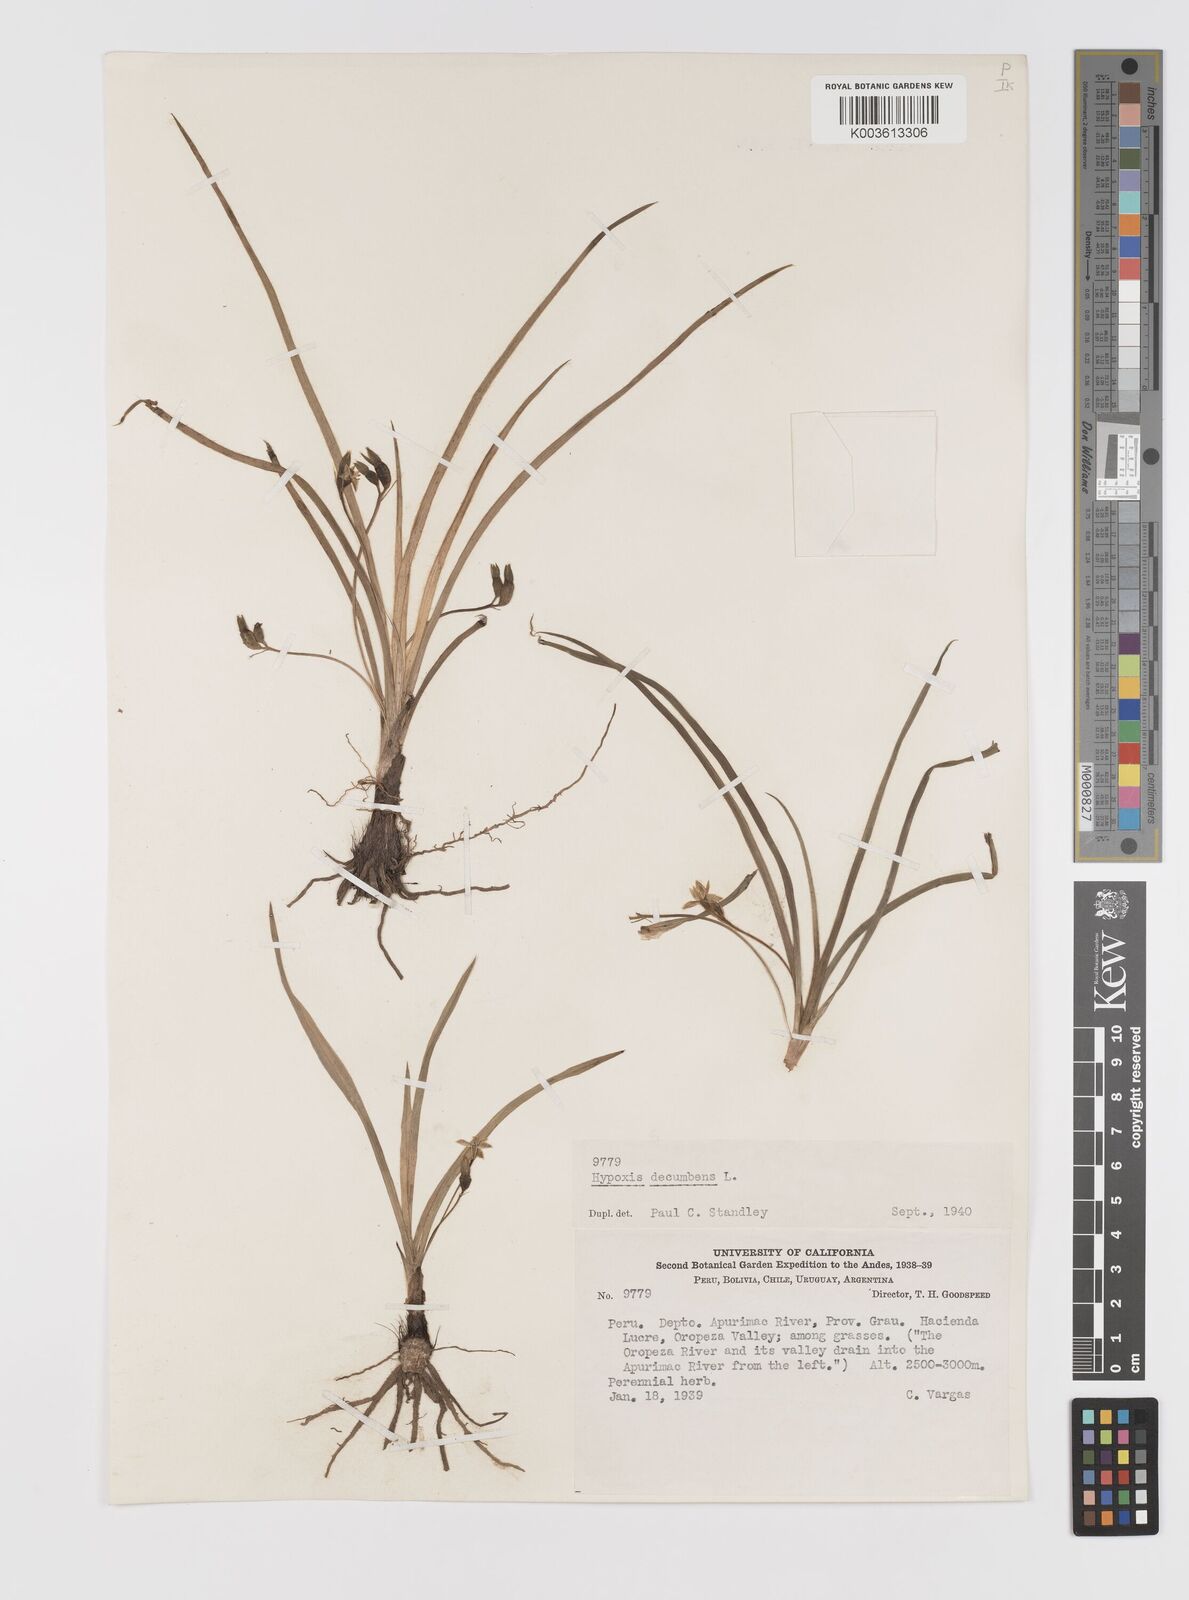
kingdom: Plantae
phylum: Tracheophyta
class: Liliopsida
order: Asparagales
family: Hypoxidaceae
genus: Hypoxis
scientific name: Hypoxis decumbens
